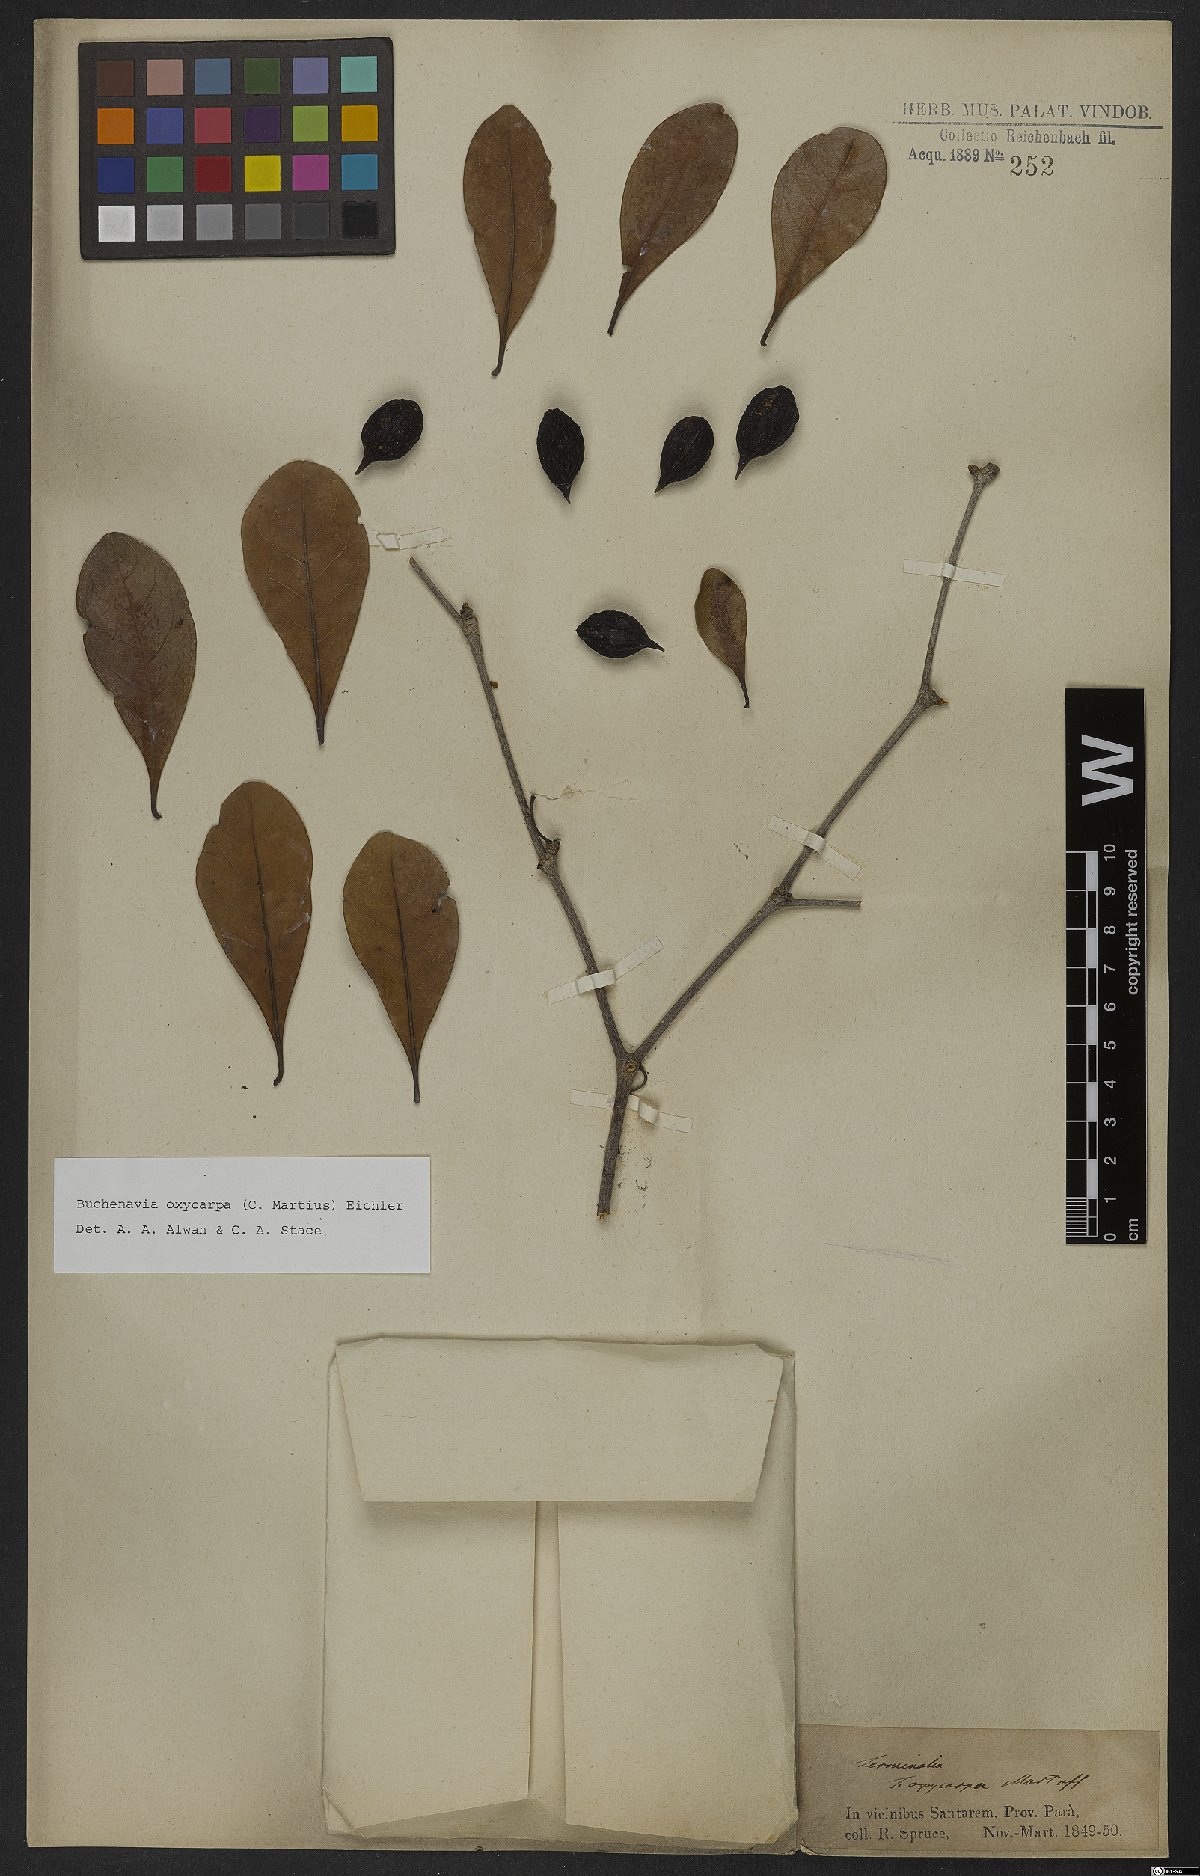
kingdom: Plantae
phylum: Tracheophyta
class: Magnoliopsida
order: Myrtales
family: Combretaceae
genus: Terminalia
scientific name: Terminalia oxycarpa
